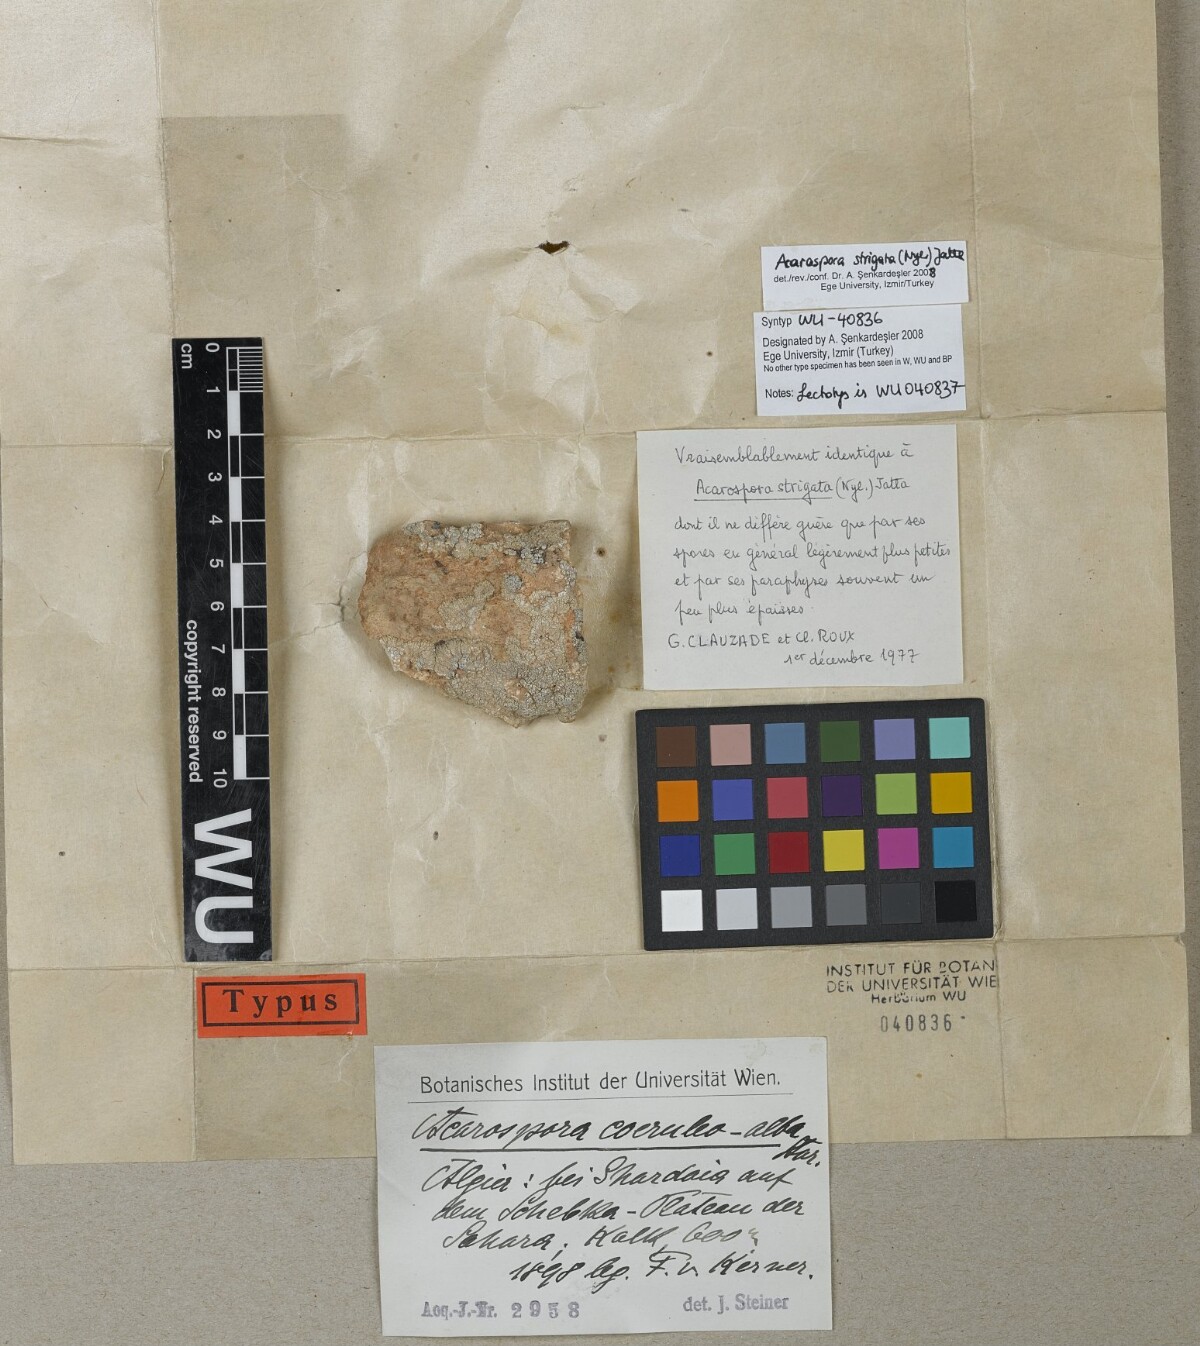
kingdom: Fungi
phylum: Ascomycota
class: Lecanoromycetes
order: Acarosporales
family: Acarosporaceae
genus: Acarospora
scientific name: Acarospora
